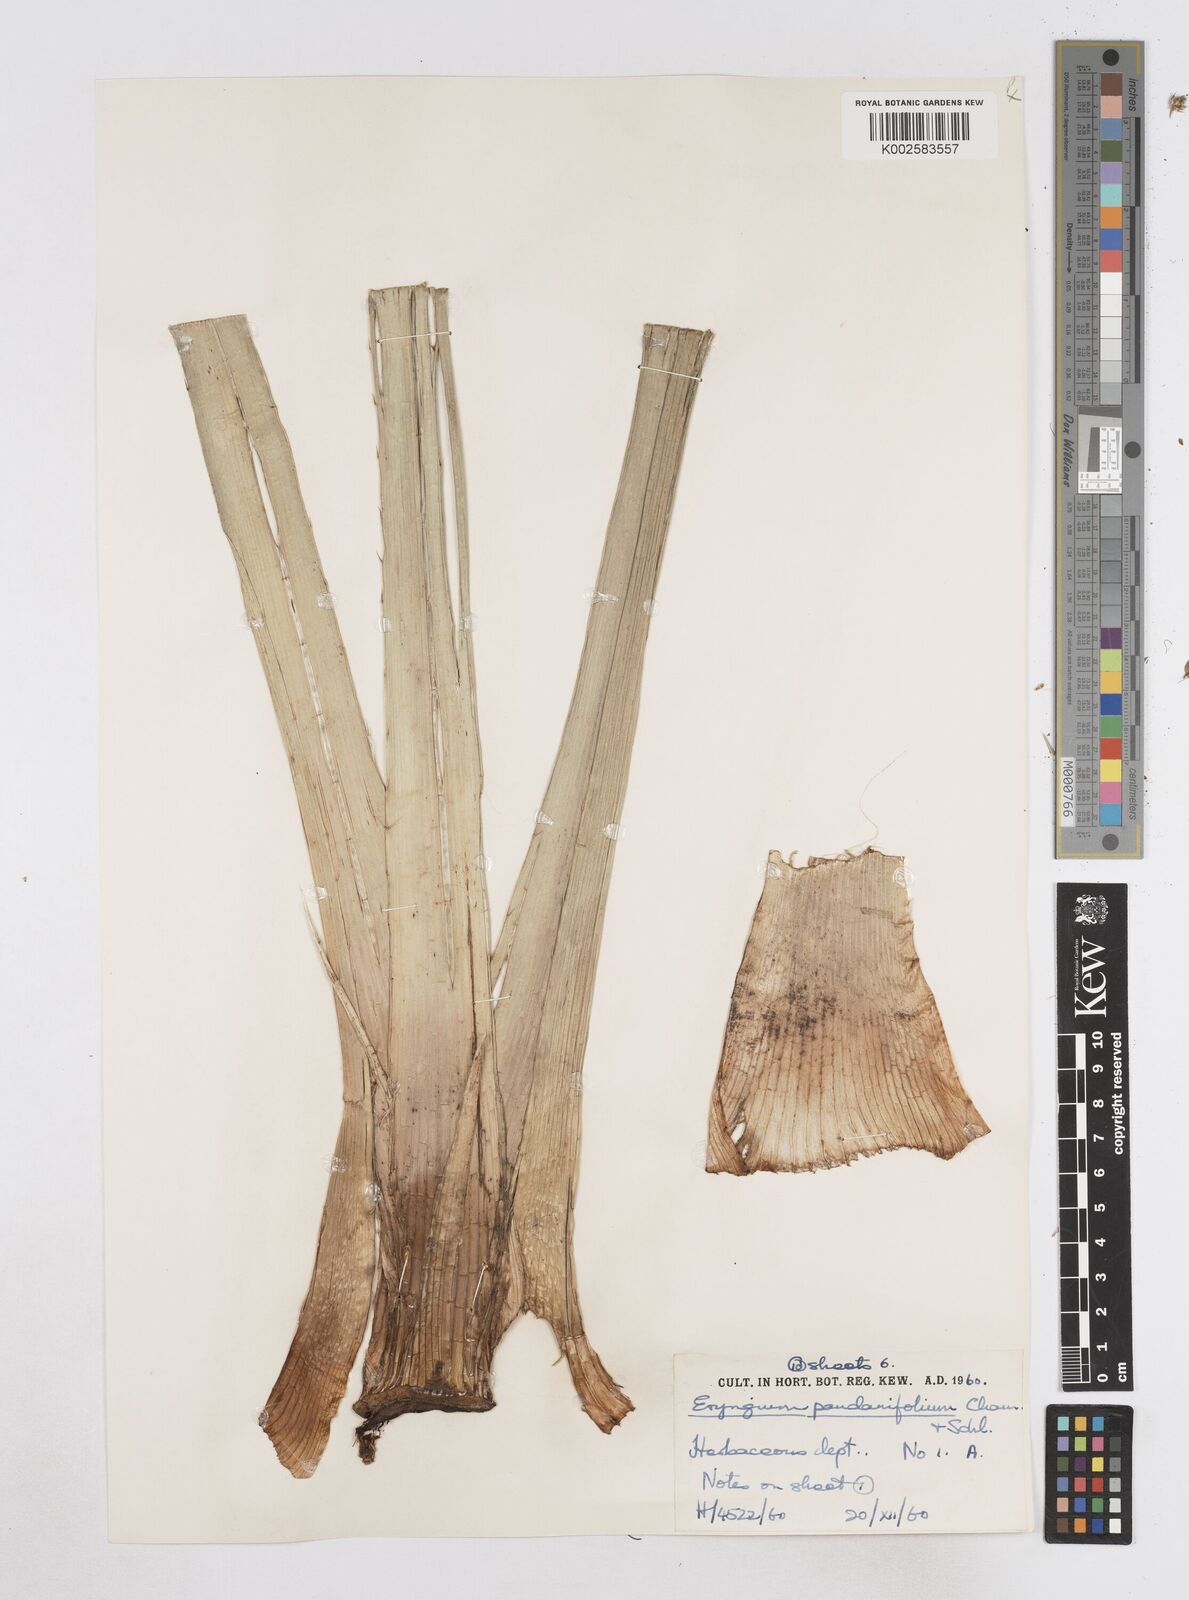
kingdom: Plantae
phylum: Tracheophyta
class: Magnoliopsida
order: Apiales
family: Apiaceae
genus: Eryngium
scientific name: Eryngium pandanifolium
